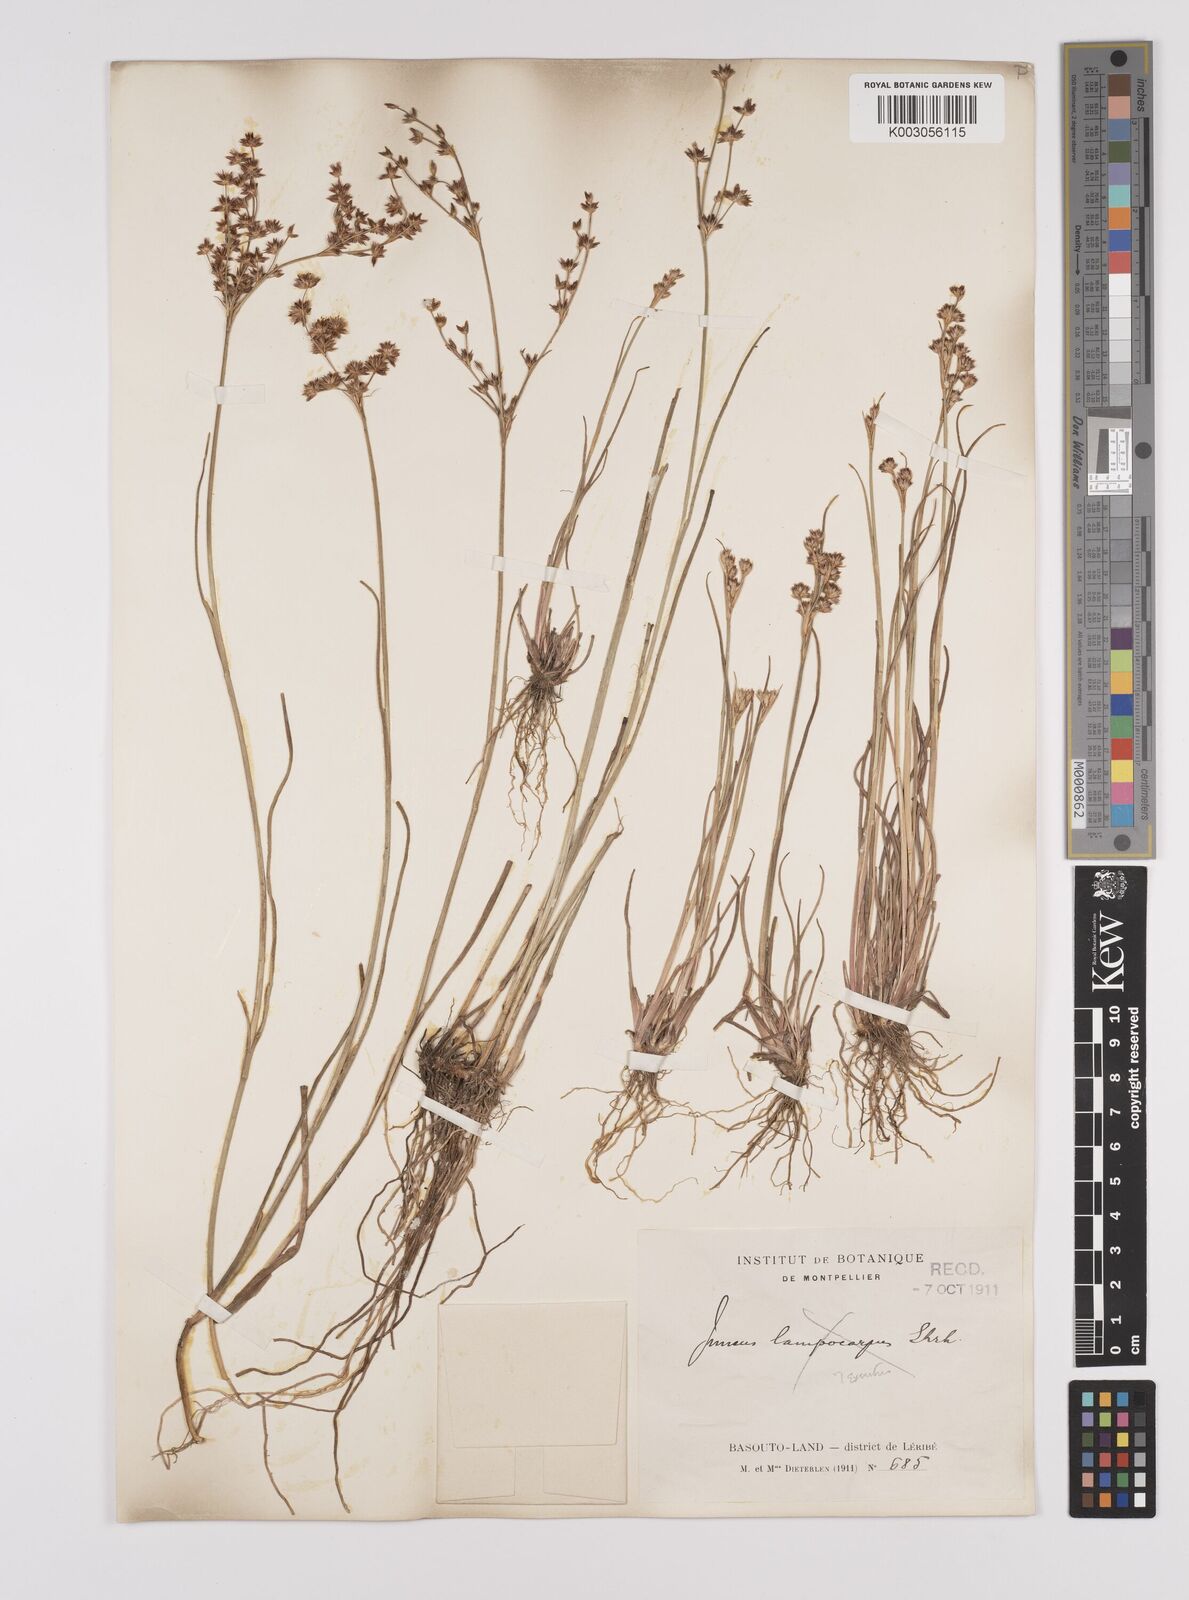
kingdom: Plantae
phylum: Tracheophyta
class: Liliopsida
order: Poales
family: Juncaceae
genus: Juncus
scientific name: Juncus
